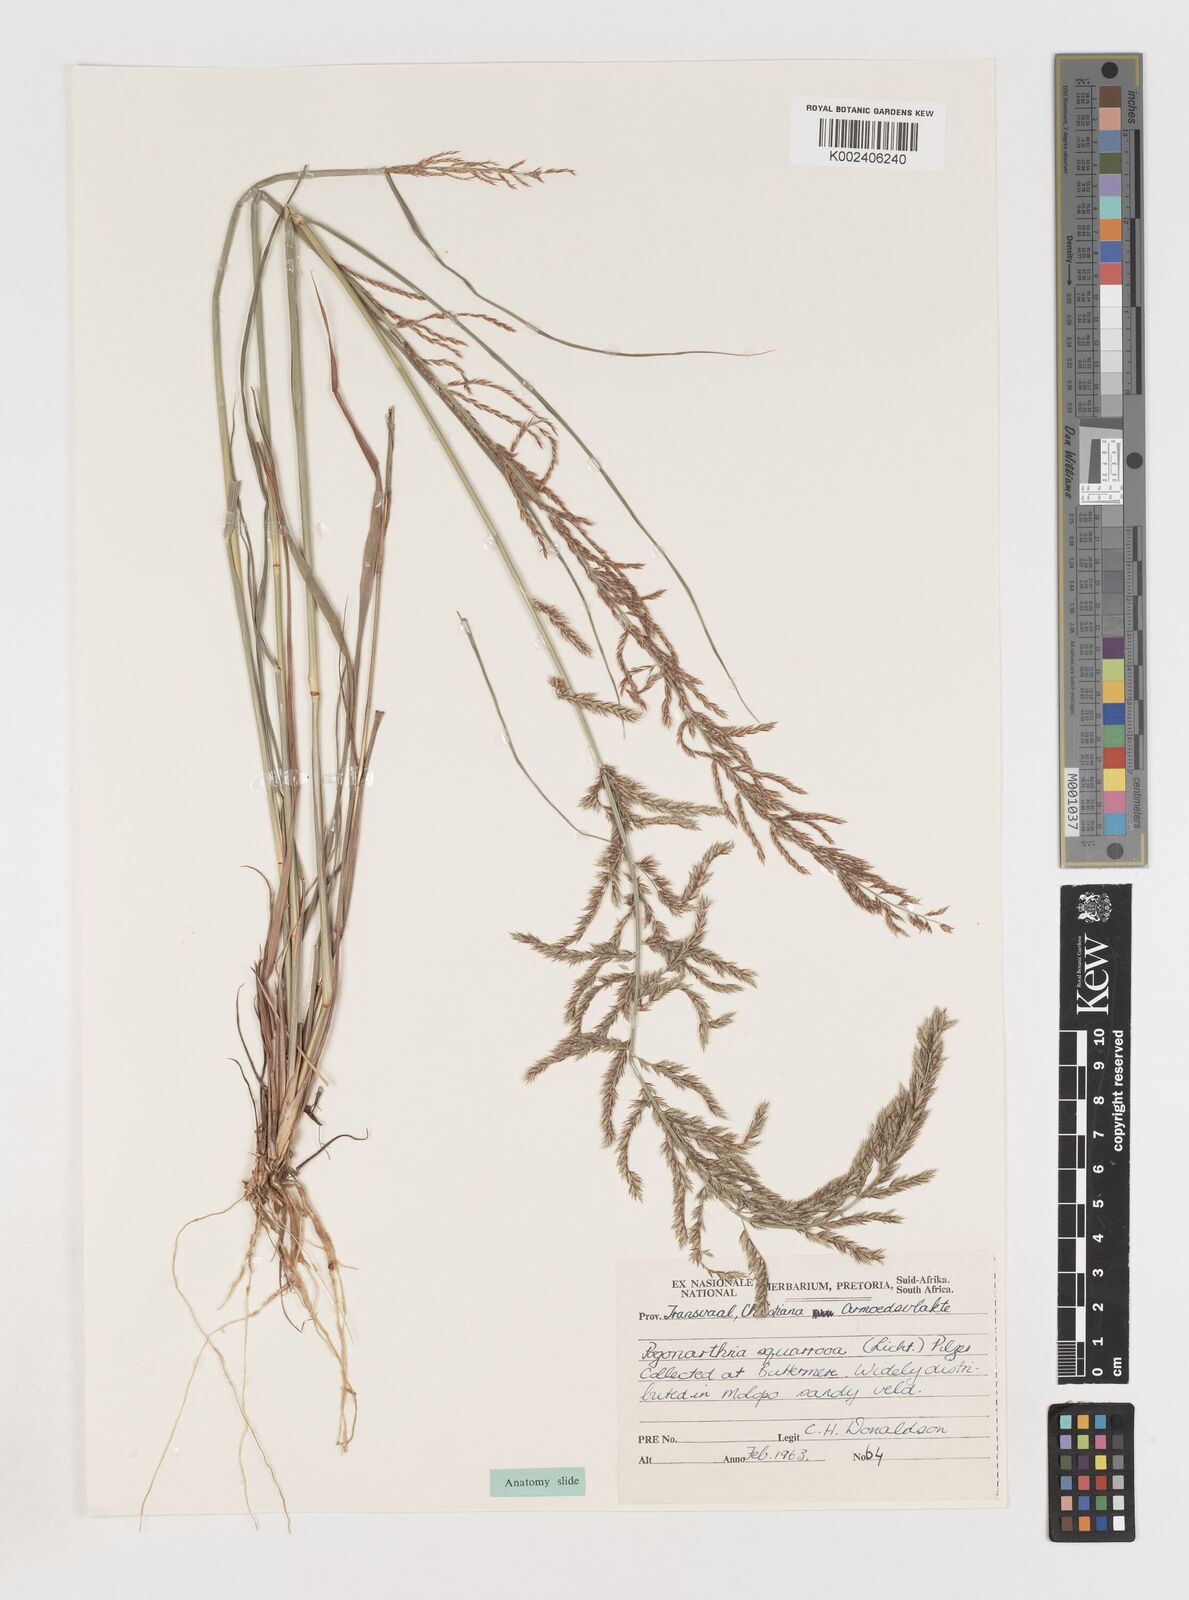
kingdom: Plantae
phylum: Tracheophyta
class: Liliopsida
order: Poales
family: Poaceae
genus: Pogonarthria
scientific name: Pogonarthria squarrosa
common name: Grass
